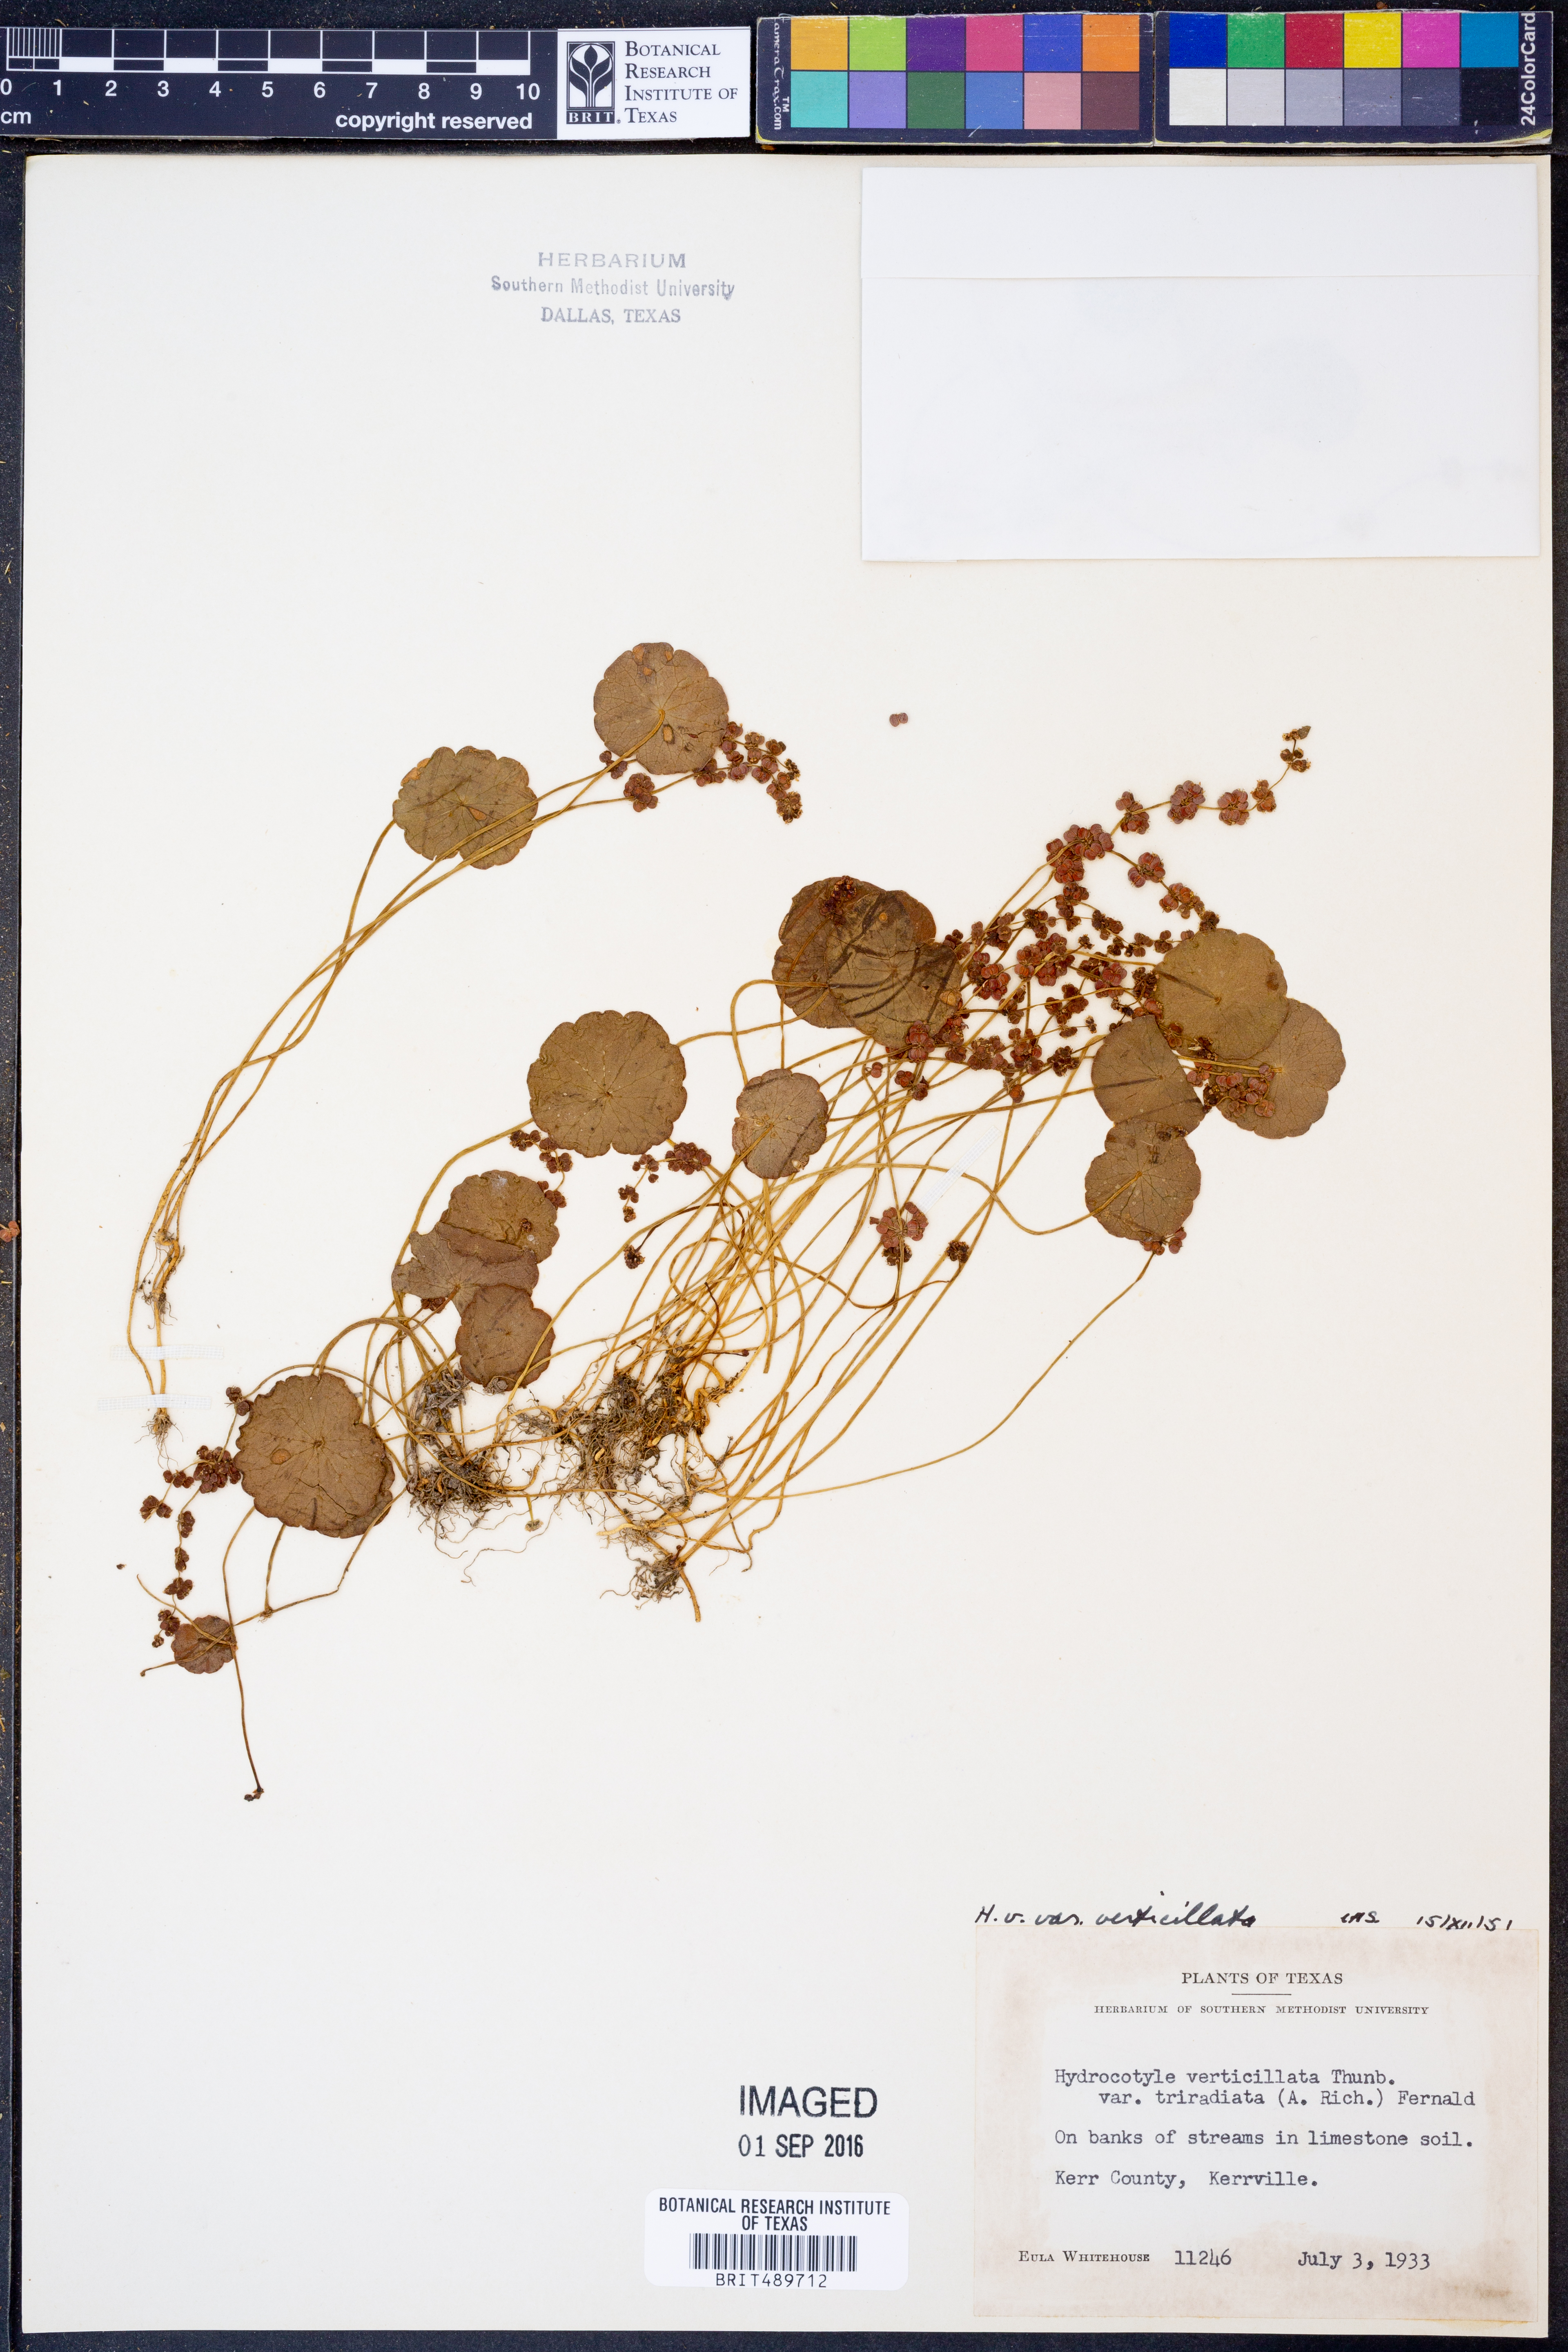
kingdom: Plantae
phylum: Tracheophyta
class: Magnoliopsida
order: Apiales
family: Araliaceae
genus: Hydrocotyle
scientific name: Hydrocotyle verticillata
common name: Whorled marshpennywort
